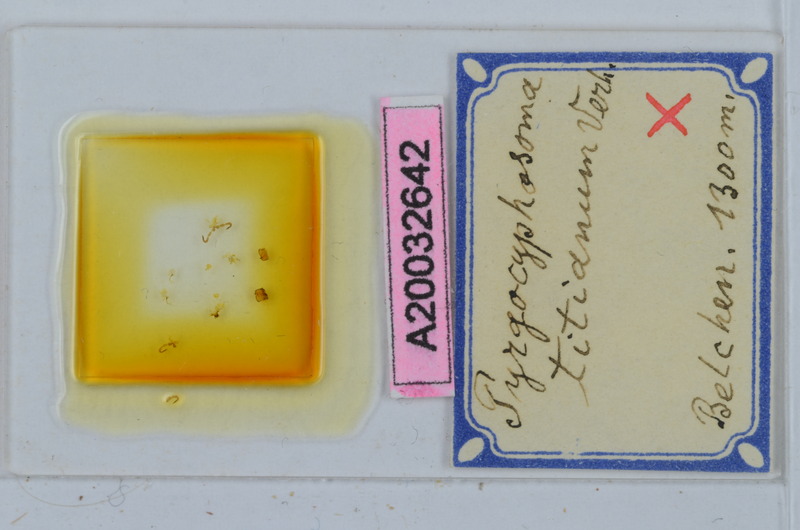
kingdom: Animalia
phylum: Arthropoda
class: Diplopoda
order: Chordeumatida
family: Craspedosomatidae
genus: Pyrgocyphosoma
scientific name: Pyrgocyphosoma titianum
